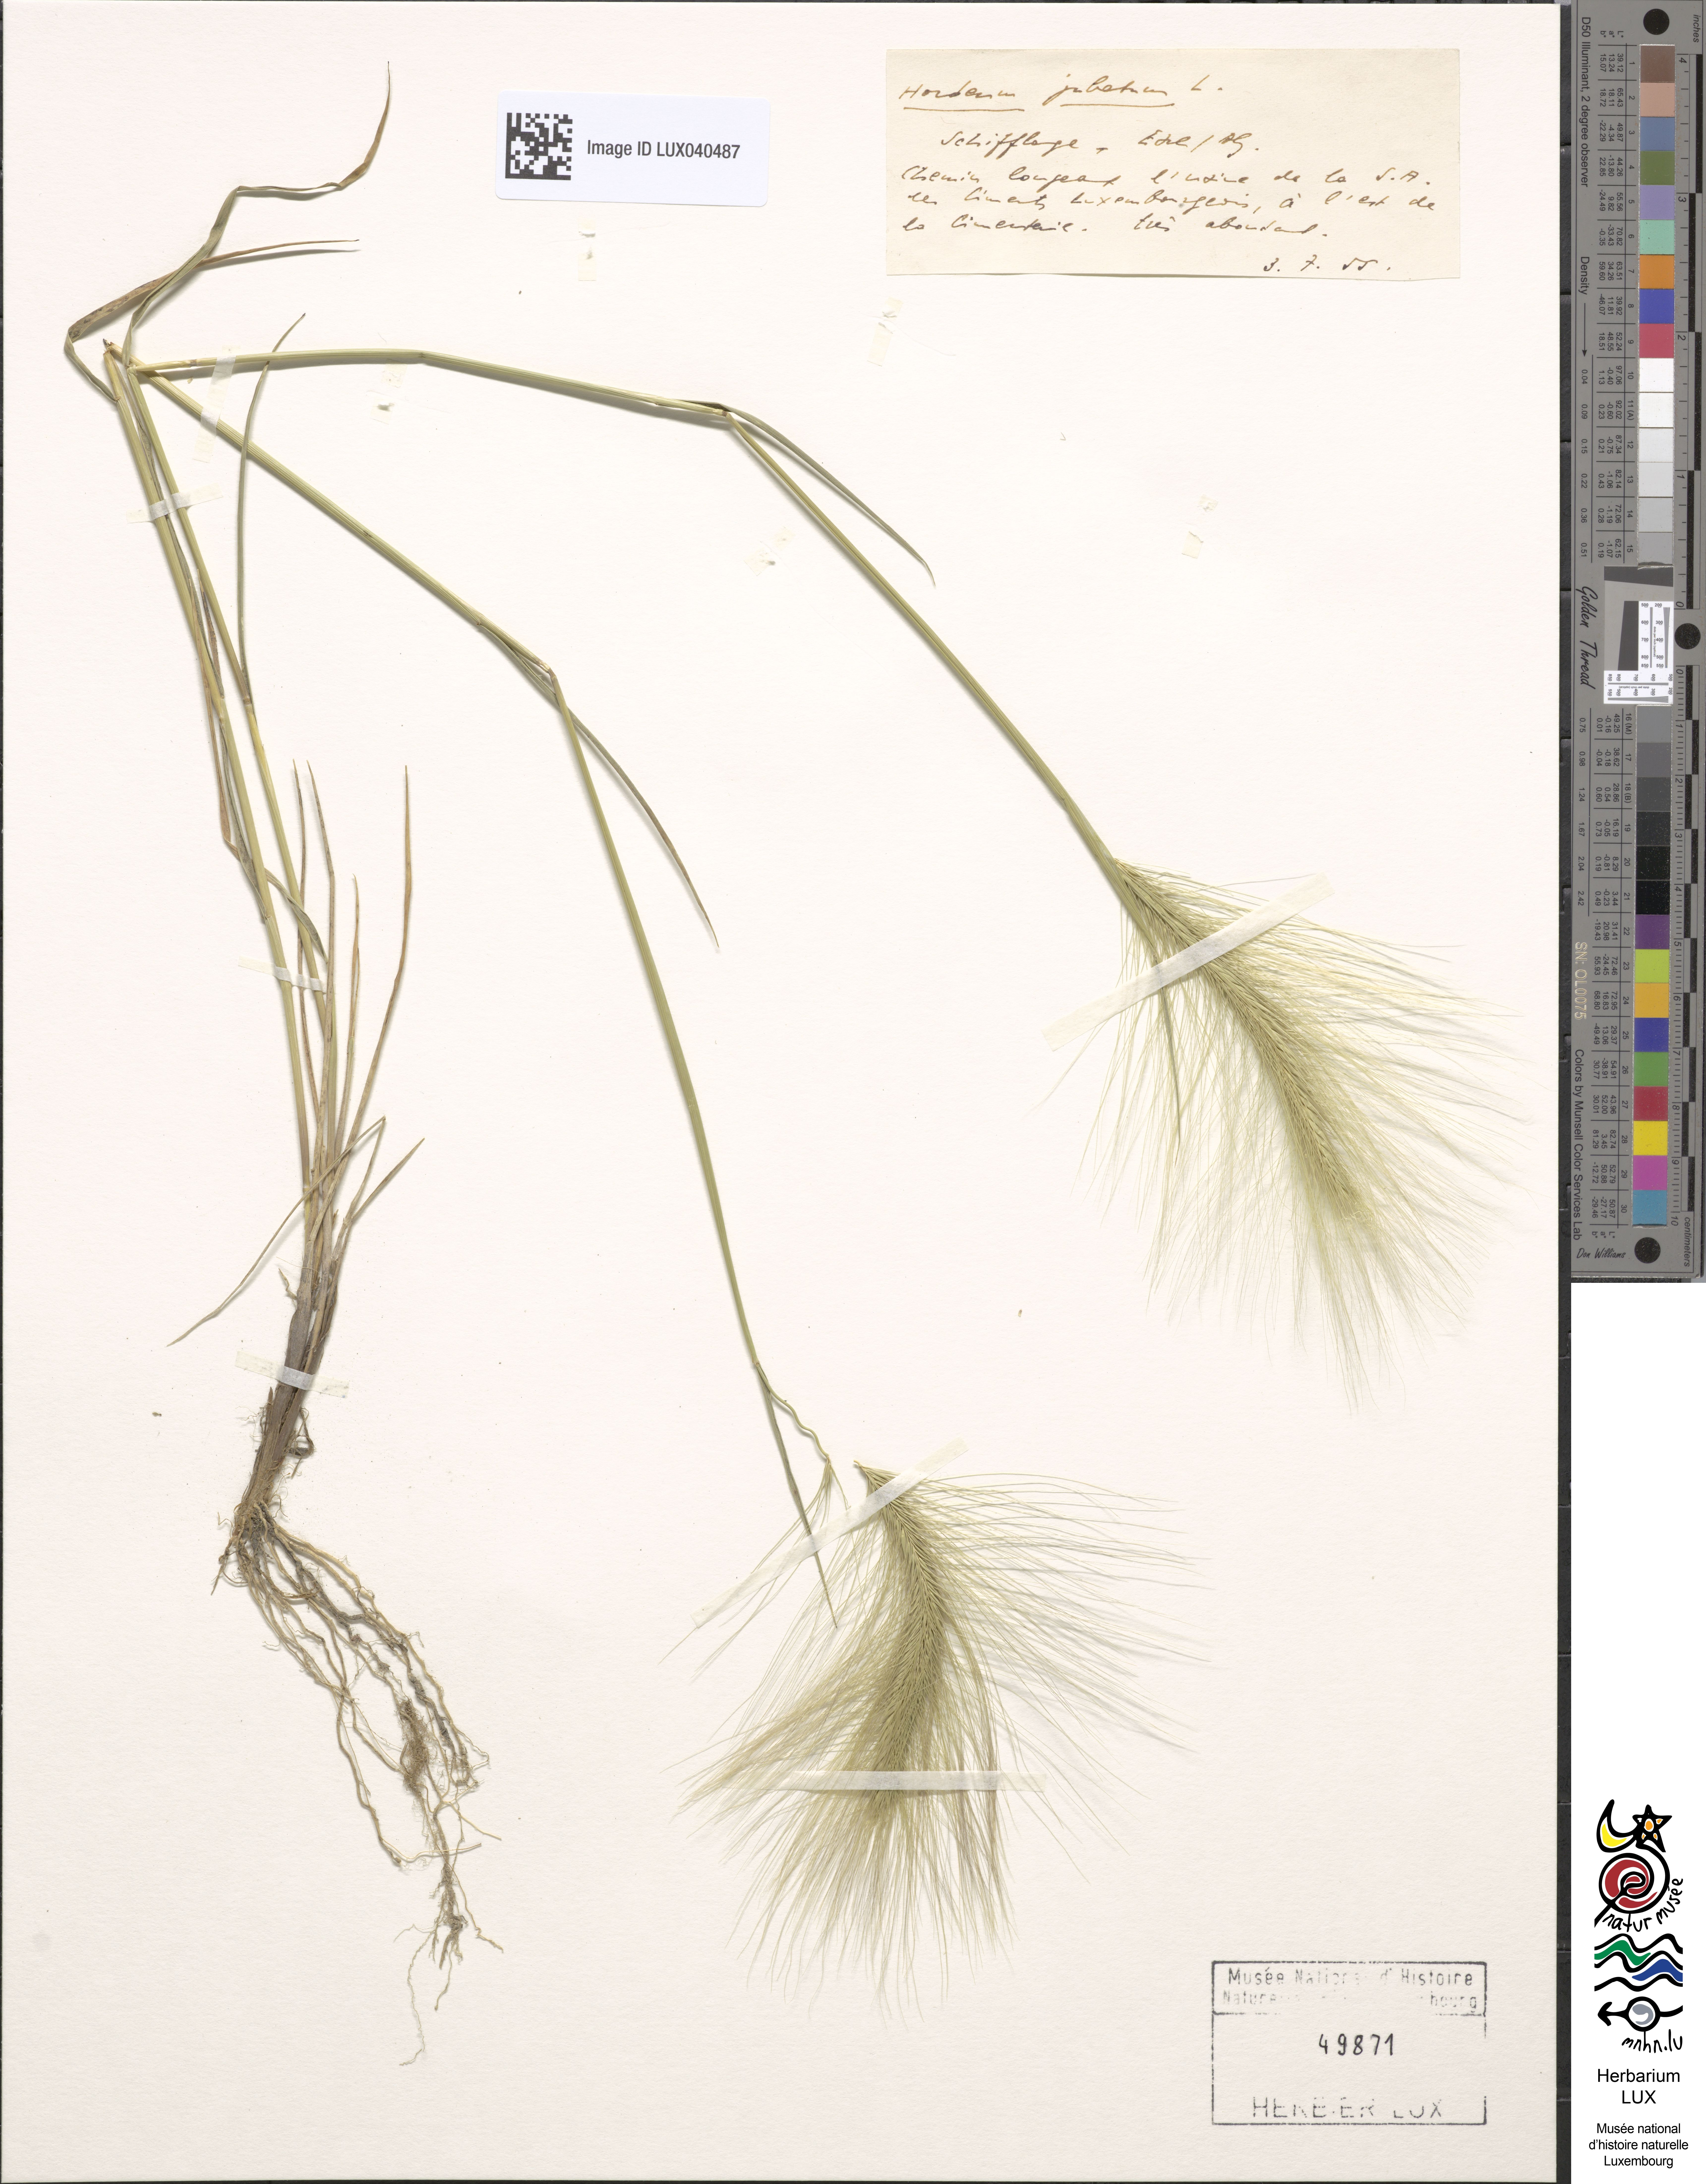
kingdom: Plantae
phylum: Tracheophyta
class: Liliopsida
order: Poales
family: Poaceae
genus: Hordeum
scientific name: Hordeum jubatum
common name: Foxtail barley
